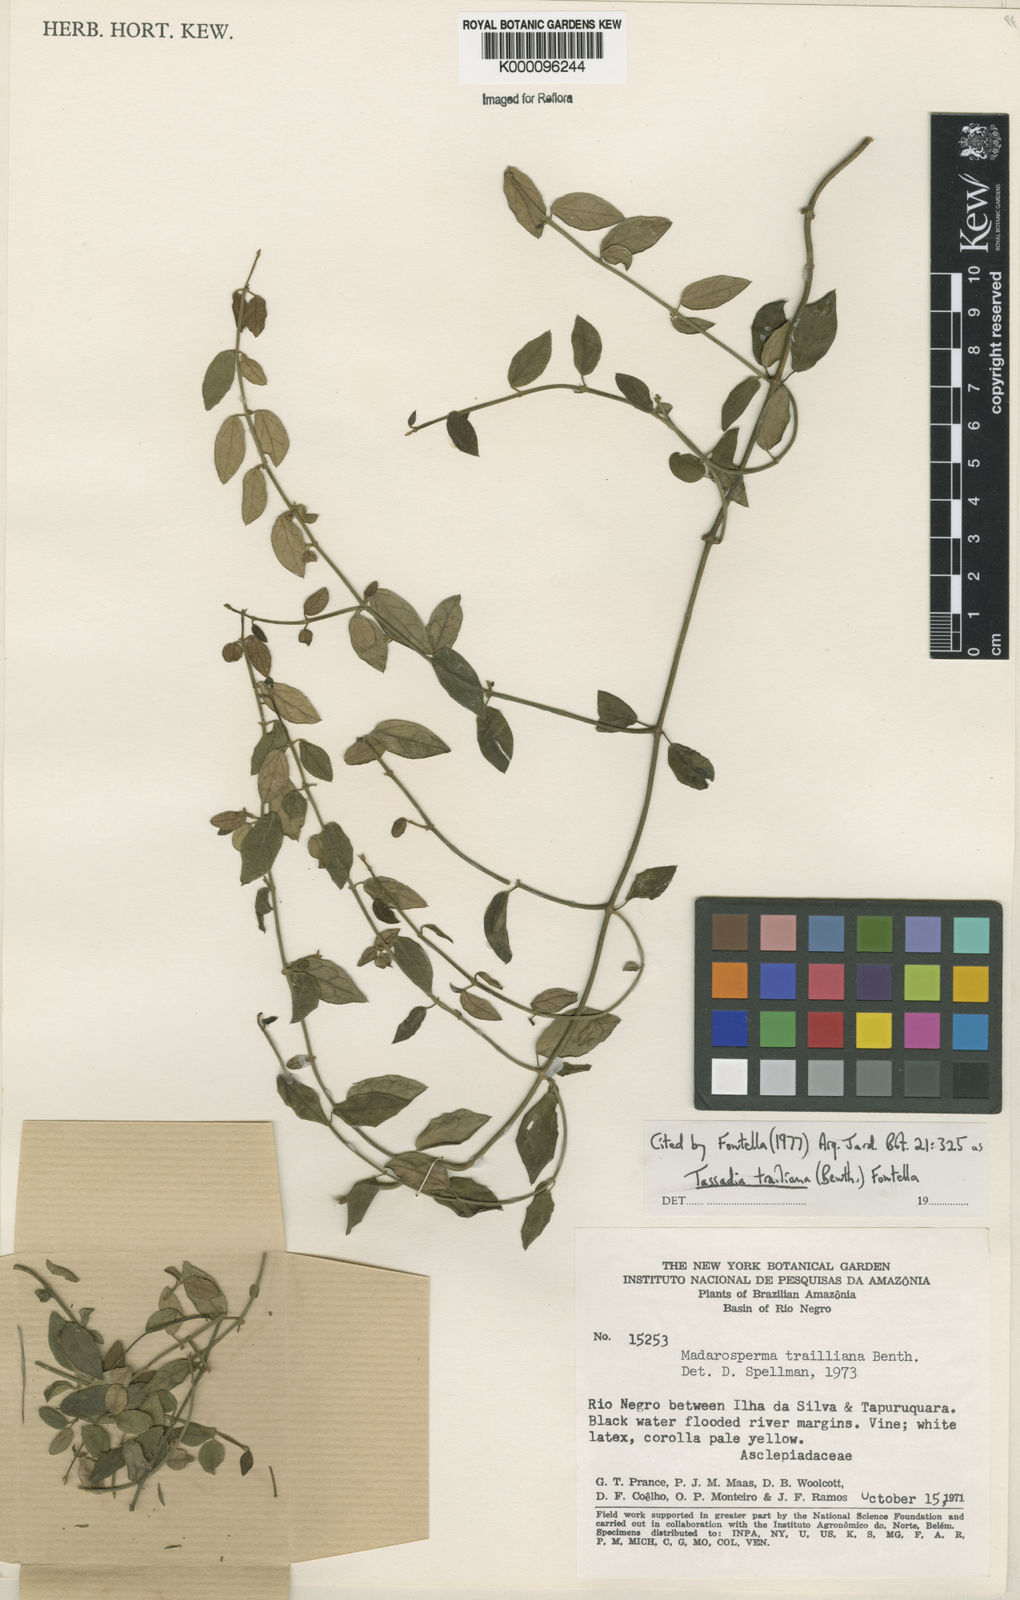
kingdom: Plantae
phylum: Tracheophyta
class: Magnoliopsida
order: Gentianales
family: Apocynaceae
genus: Tassadia
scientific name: Tassadia trailiana
